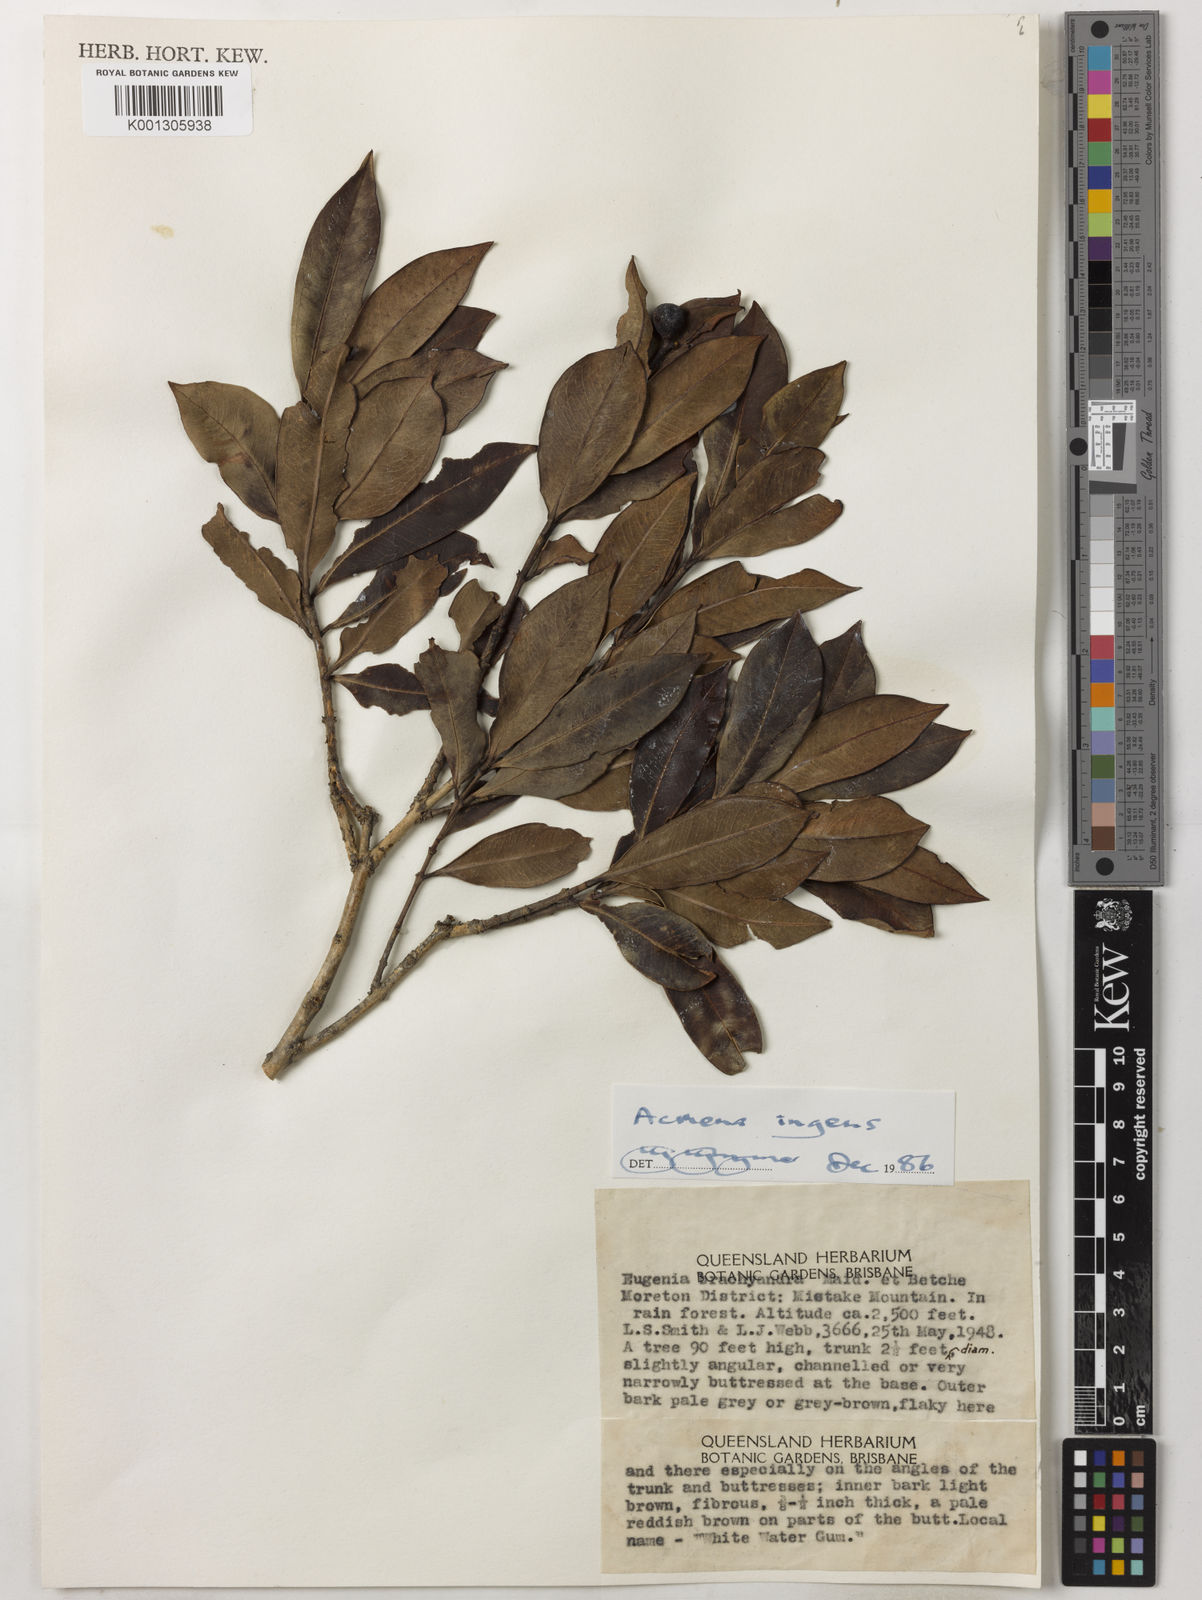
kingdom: Plantae
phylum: Tracheophyta
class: Magnoliopsida
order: Myrtales
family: Myrtaceae
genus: Syzygium
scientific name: Syzygium ingens
